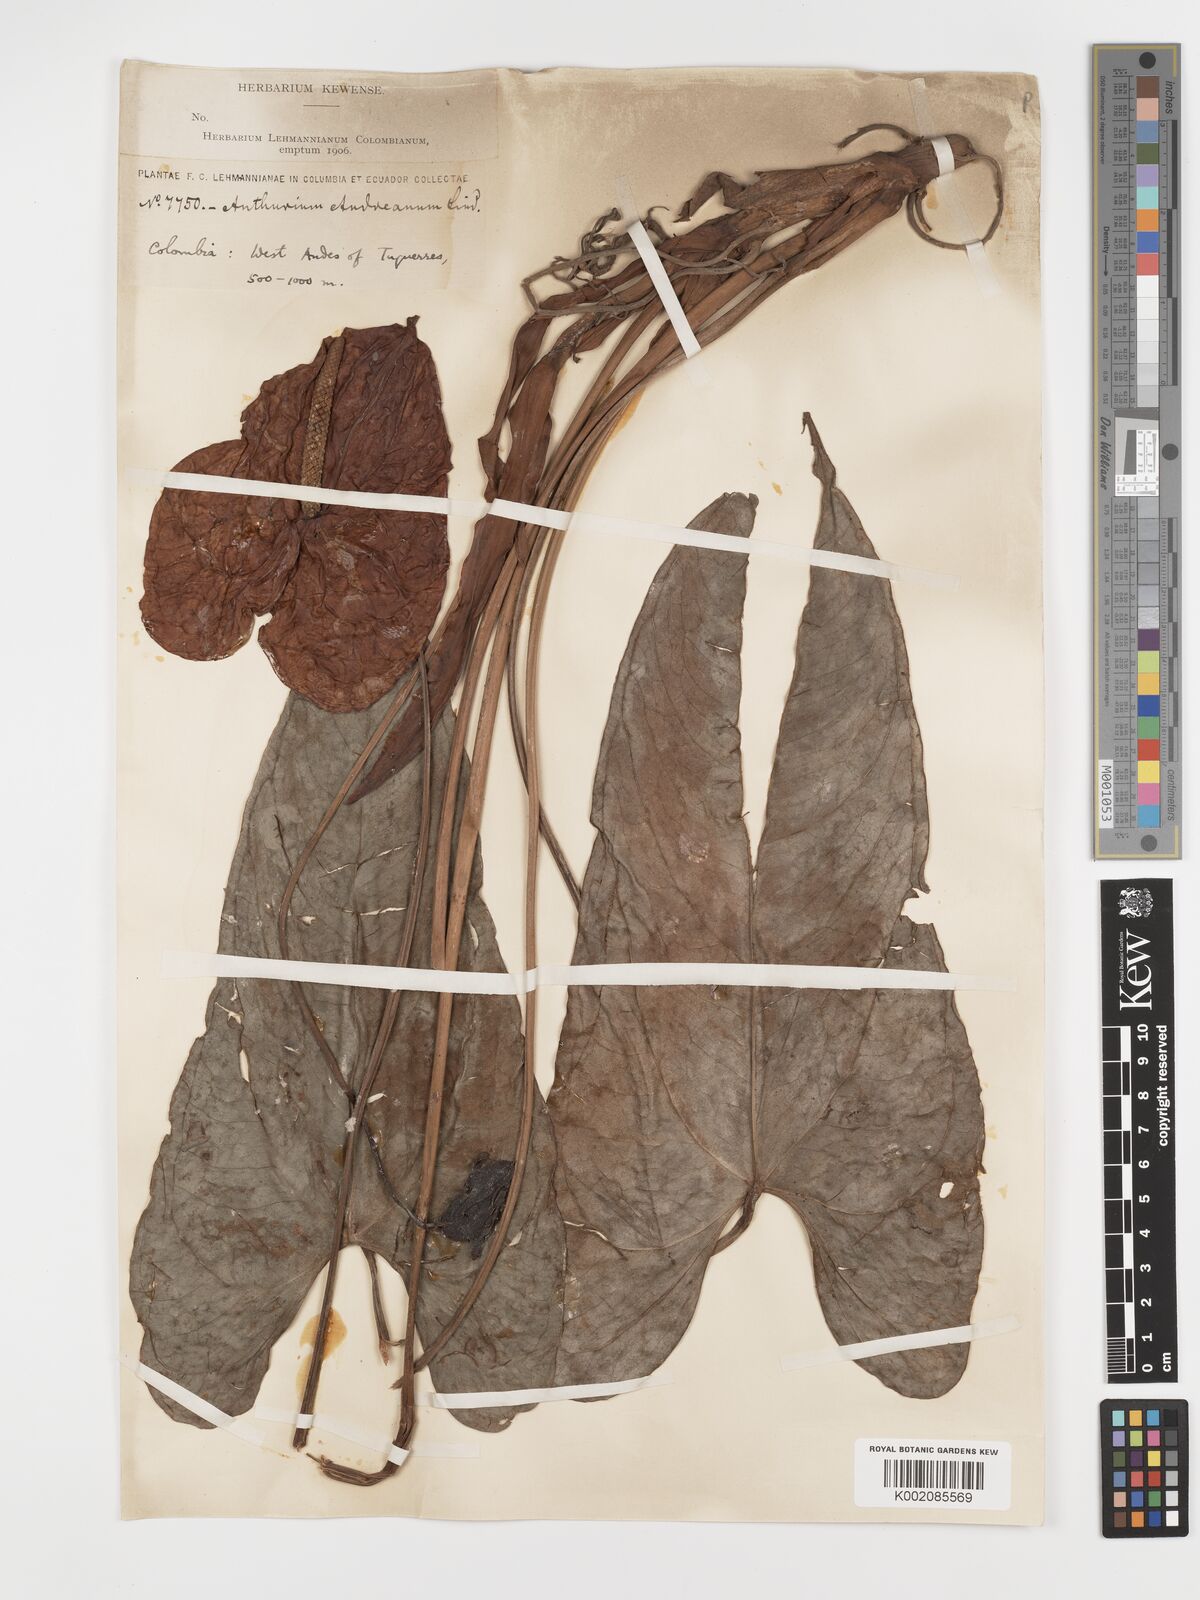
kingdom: Plantae
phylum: Tracheophyta
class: Liliopsida
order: Alismatales
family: Araceae
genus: Anthurium
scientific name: Anthurium andraeanum
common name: Flamingo-flower
